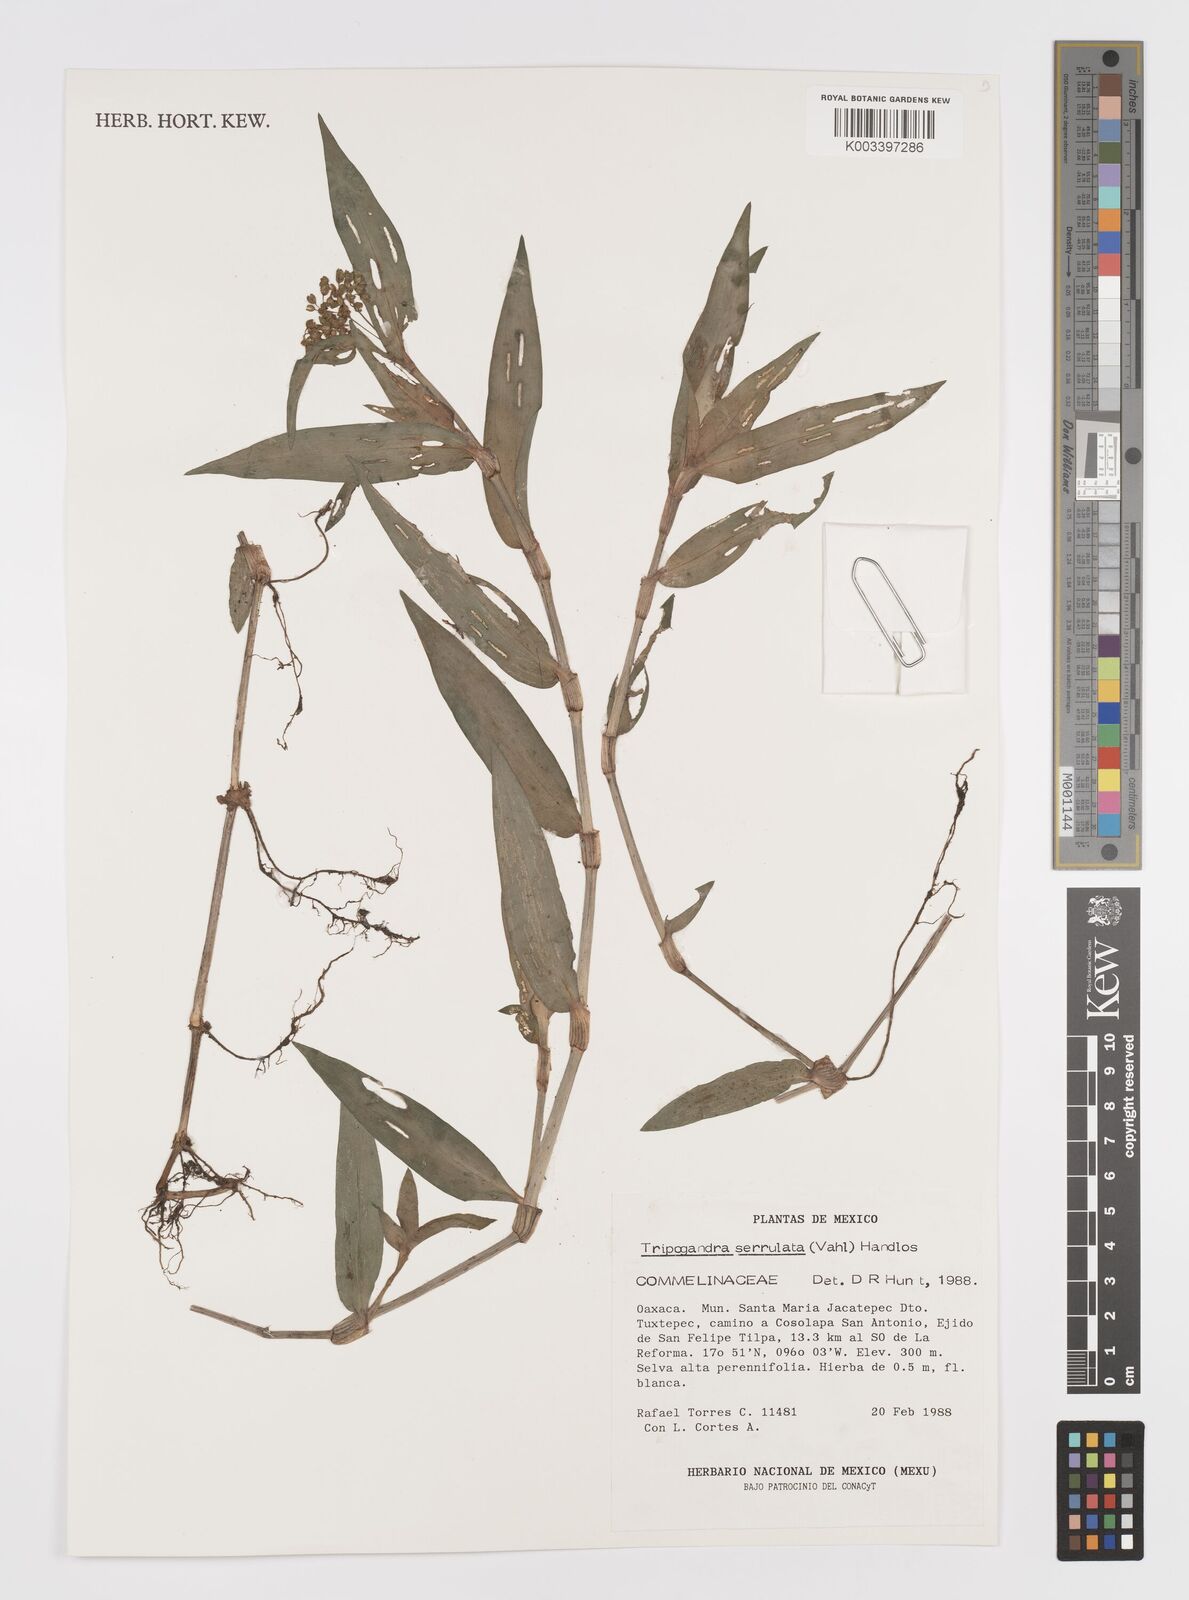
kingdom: Plantae
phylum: Tracheophyta
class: Liliopsida
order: Commelinales
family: Commelinaceae
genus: Callisia
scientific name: Callisia serrulata
